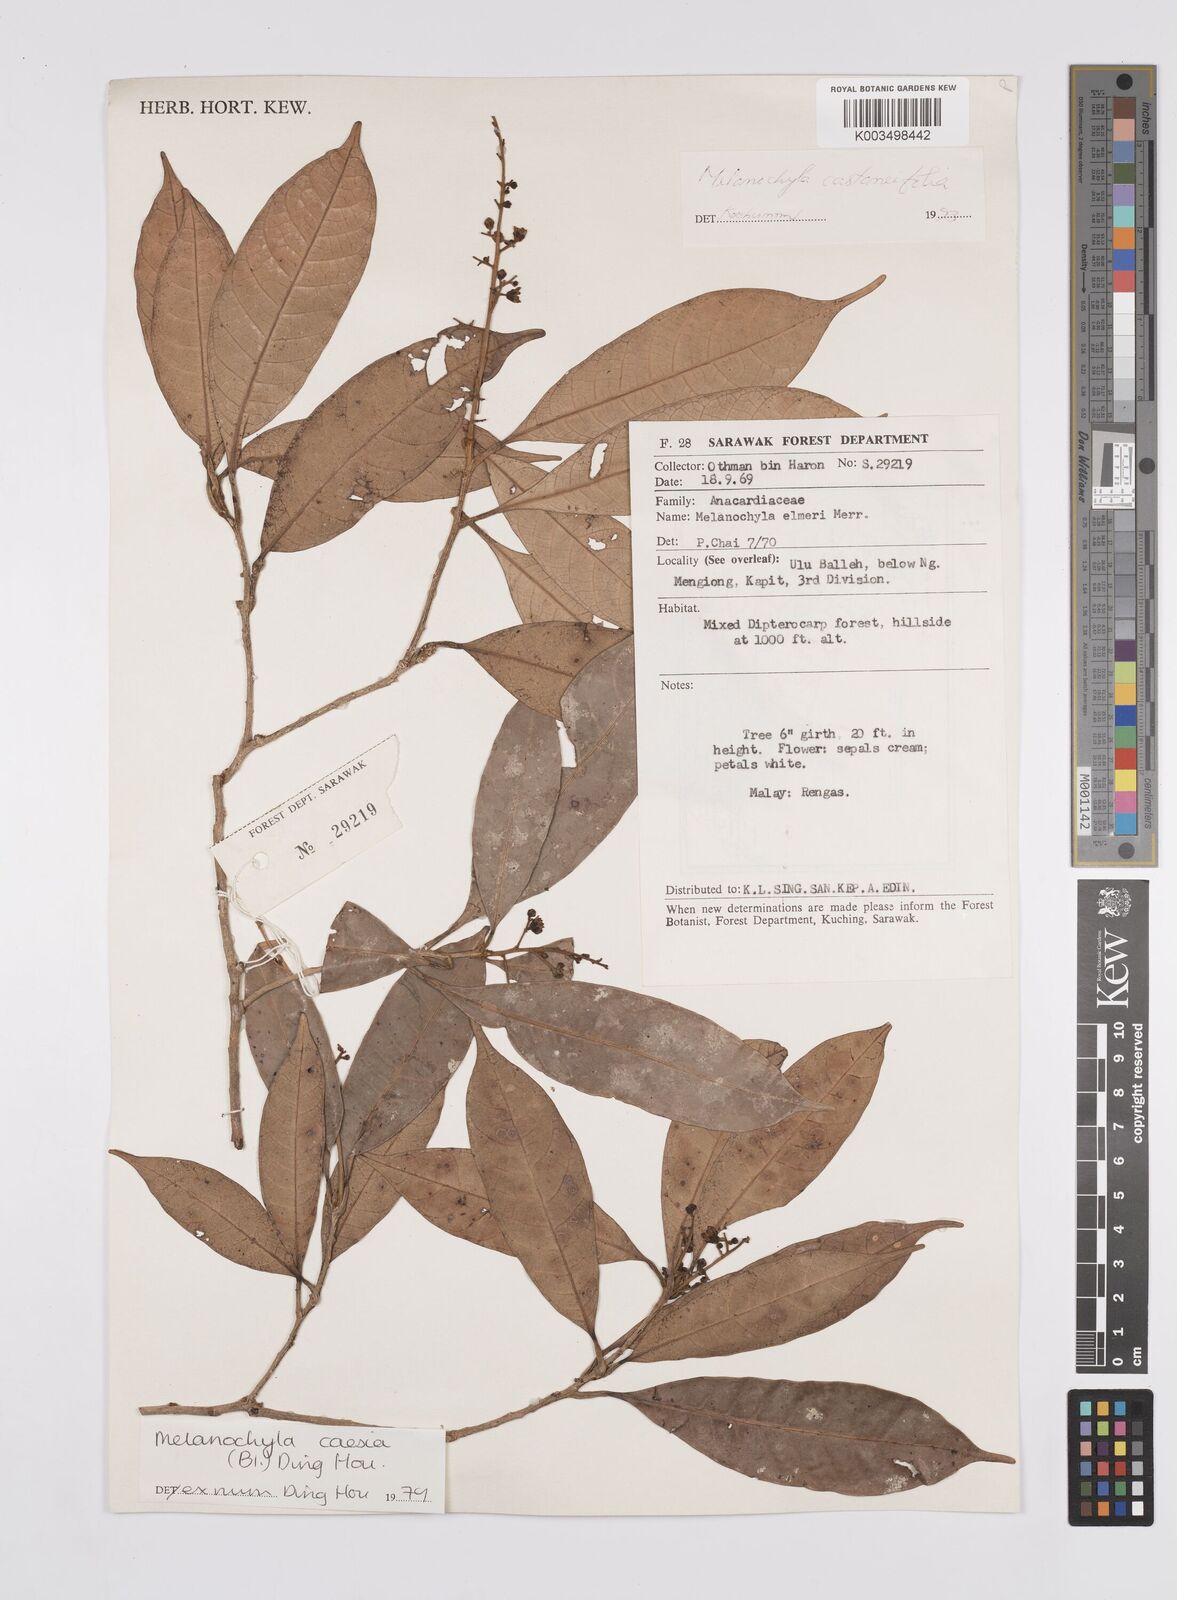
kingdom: Plantae
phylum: Tracheophyta
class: Magnoliopsida
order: Sapindales
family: Anacardiaceae
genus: Melanochyla
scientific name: Melanochyla castaneifolia
